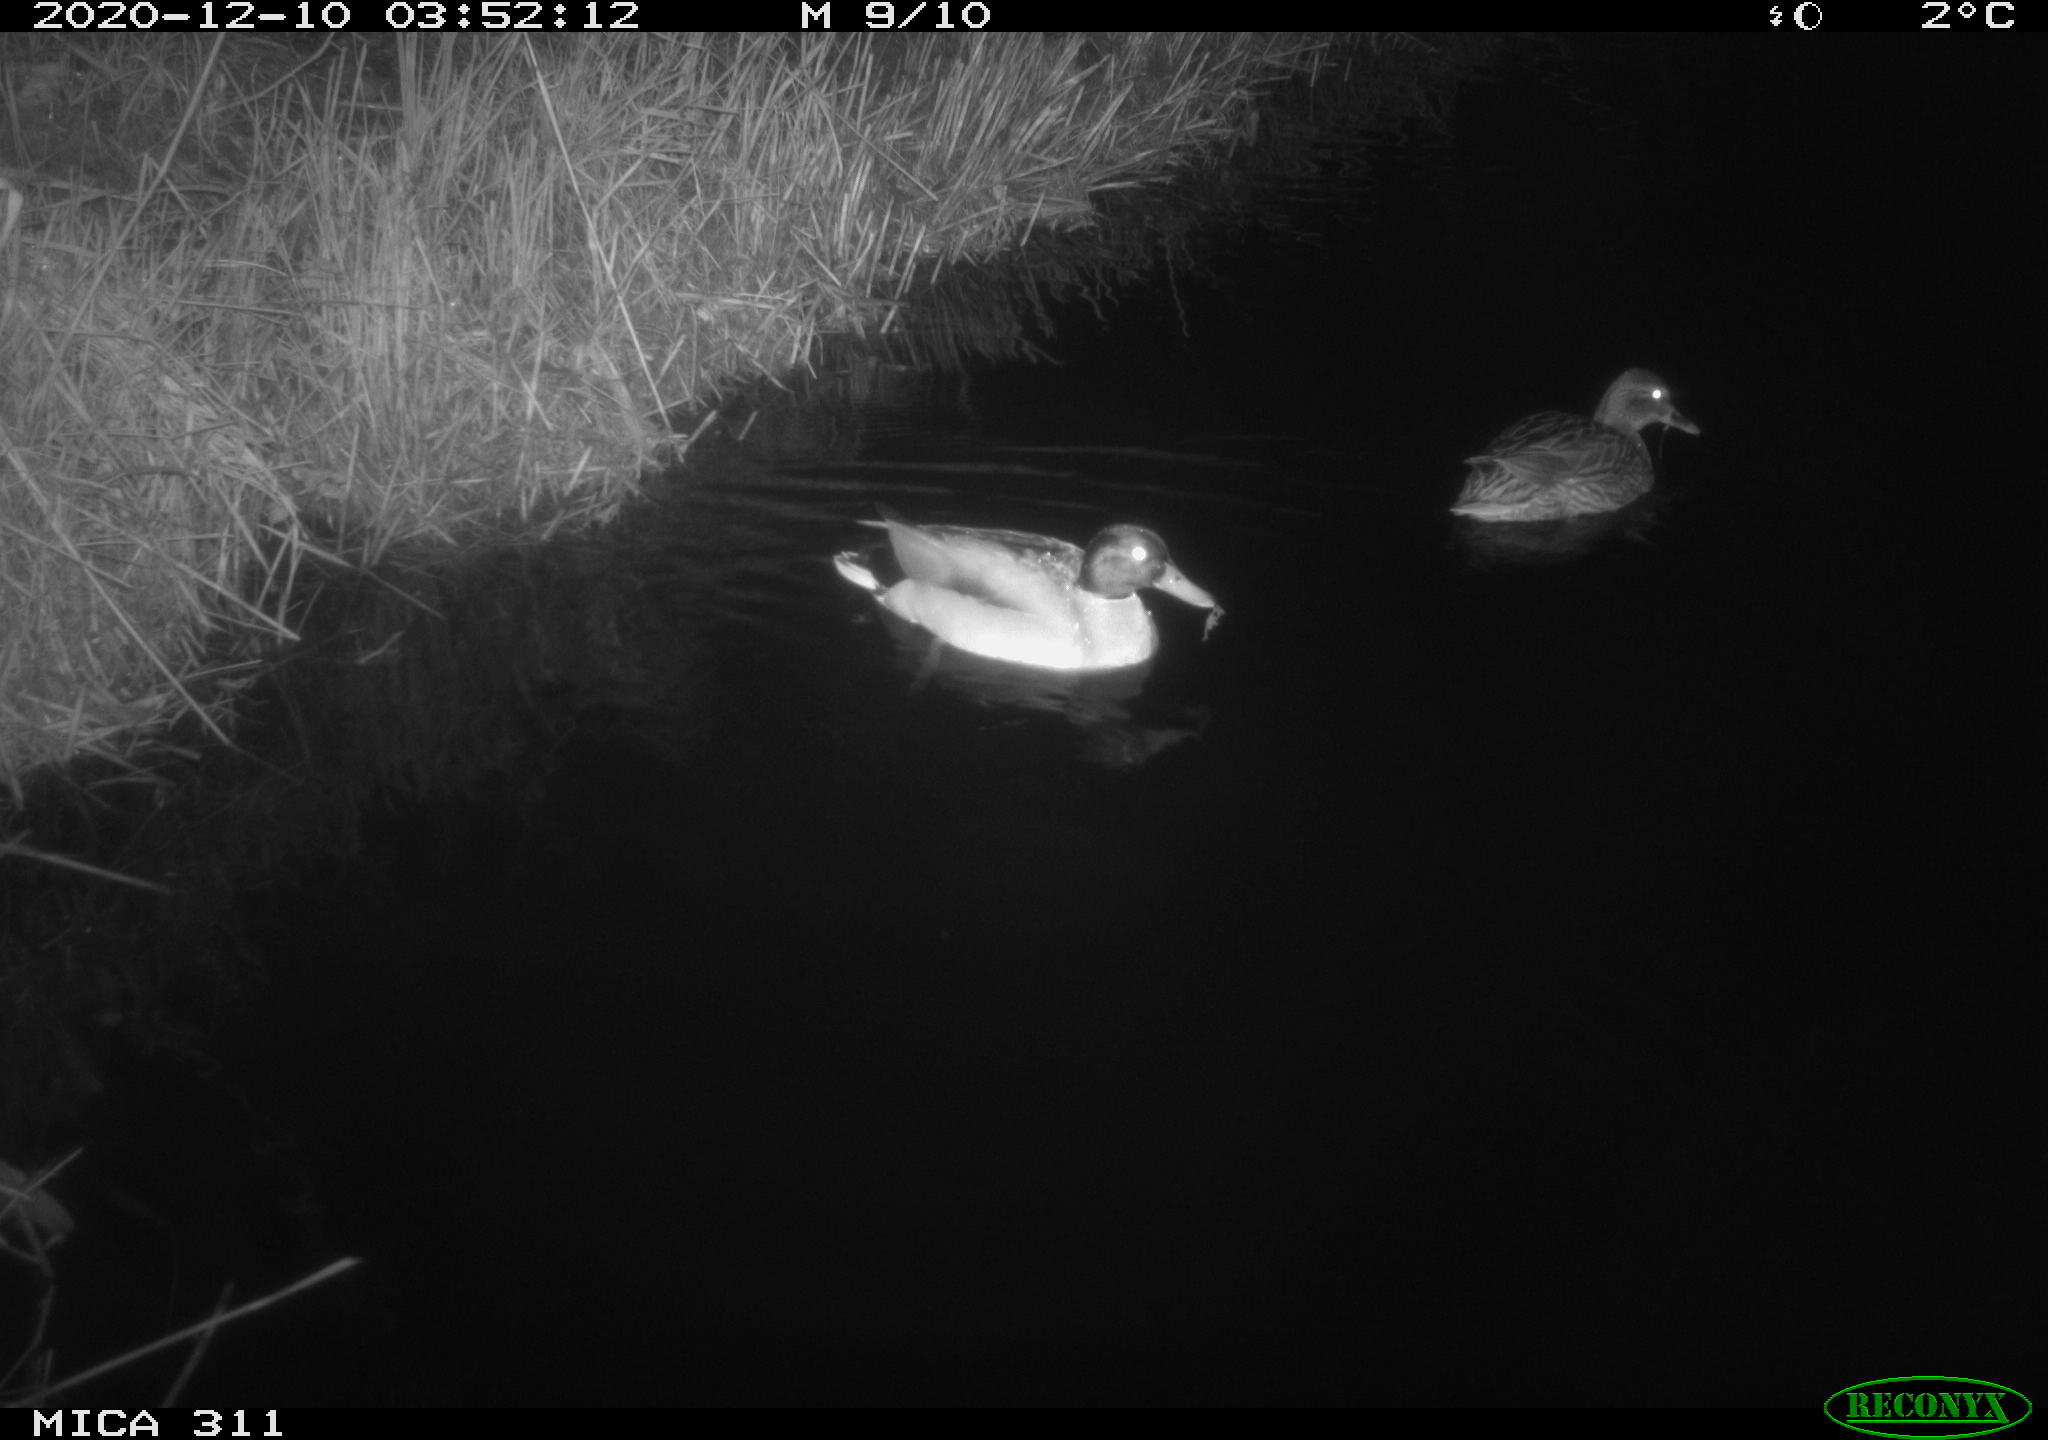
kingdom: Animalia
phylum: Chordata
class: Aves
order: Anseriformes
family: Anatidae
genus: Anas
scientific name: Anas platyrhynchos
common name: Mallard
